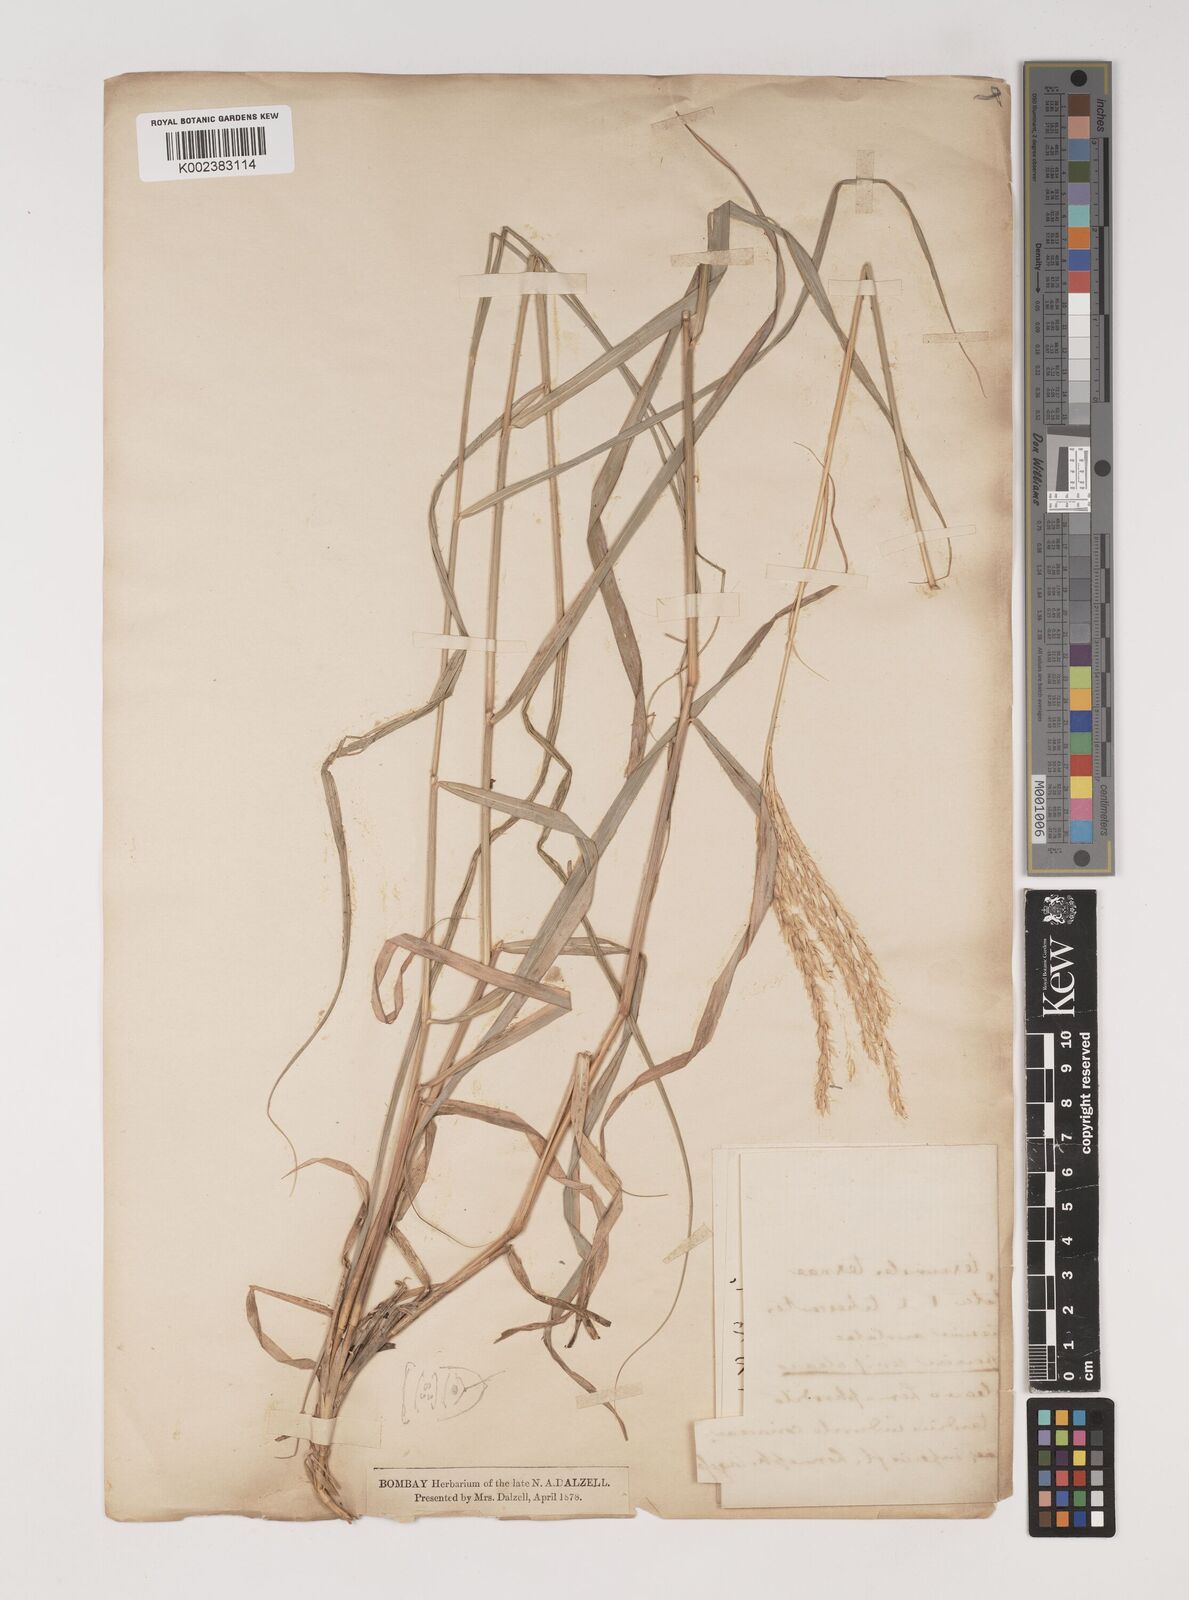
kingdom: Plantae
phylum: Tracheophyta
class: Liliopsida
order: Poales
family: Poaceae
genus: Ischaemum
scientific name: Ischaemum afrum
